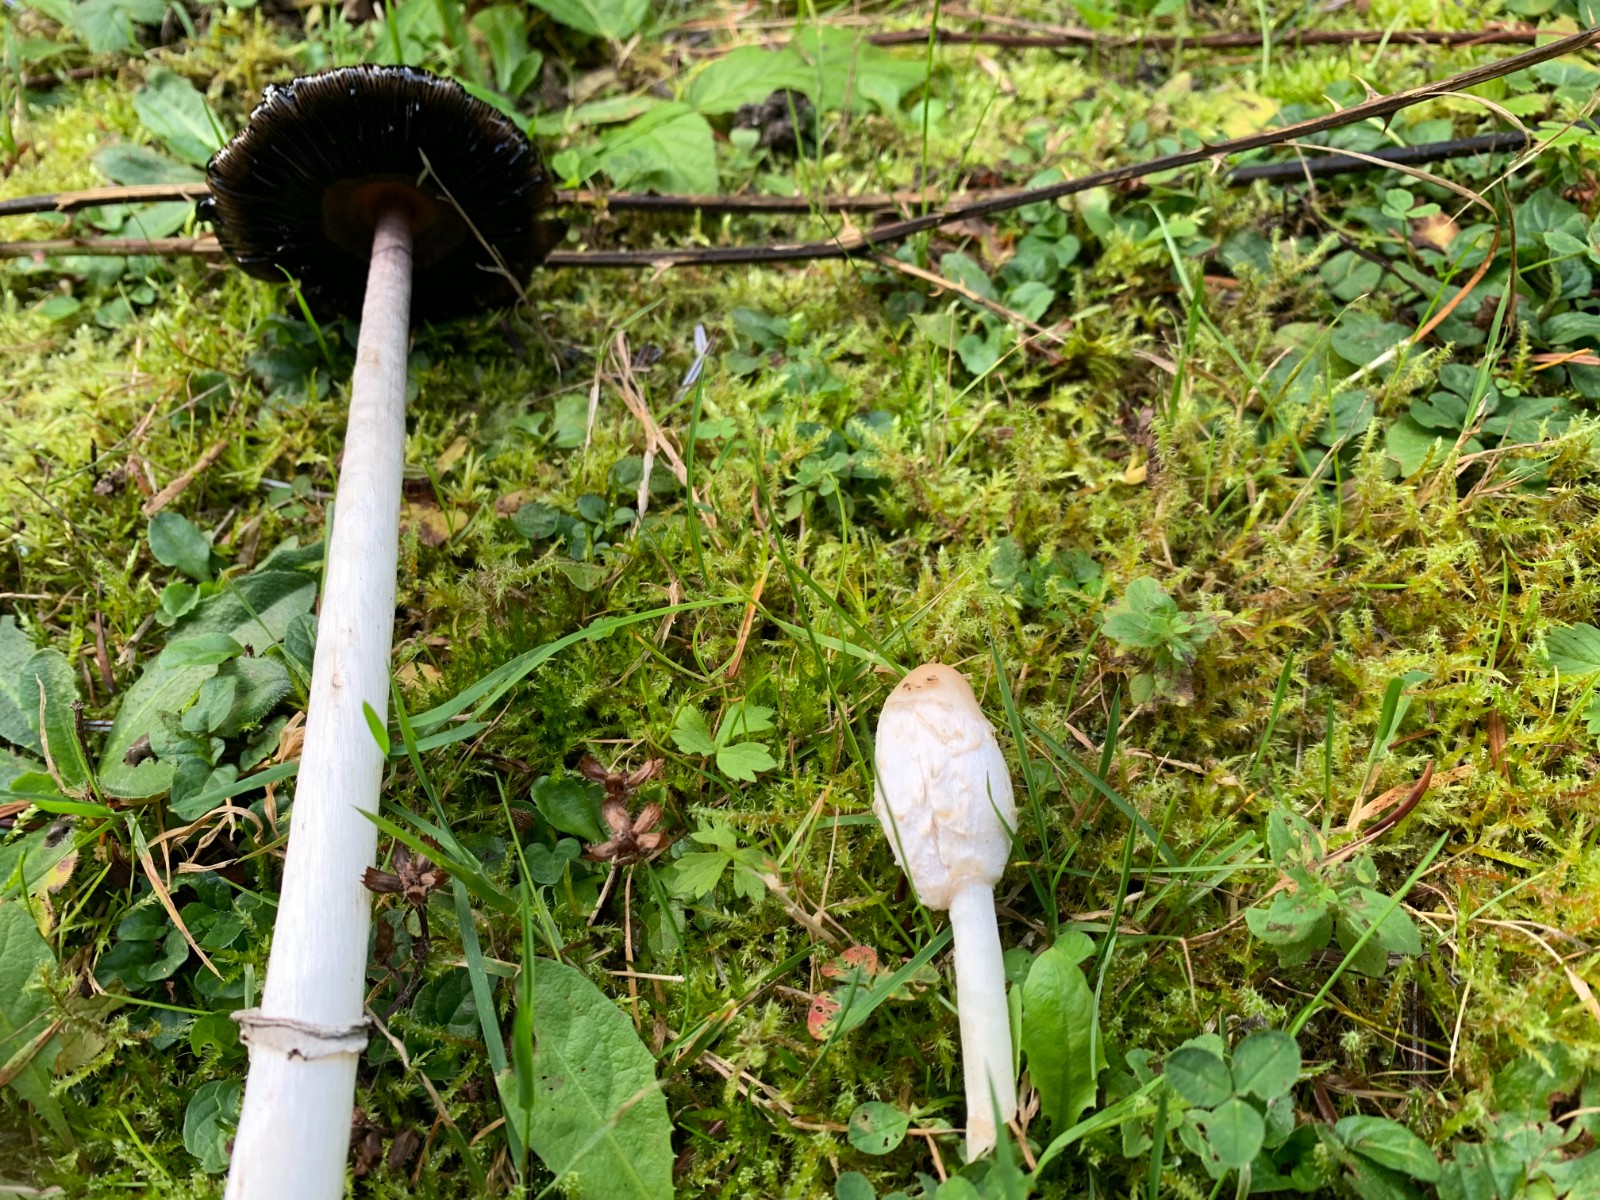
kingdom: Fungi
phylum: Basidiomycota
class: Agaricomycetes
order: Agaricales
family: Agaricaceae
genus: Coprinus
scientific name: Coprinus comatus
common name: stor parykhat
